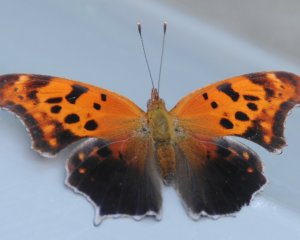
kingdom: Animalia
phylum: Arthropoda
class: Insecta
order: Lepidoptera
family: Nymphalidae
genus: Polygonia
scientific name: Polygonia interrogationis
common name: Question Mark
